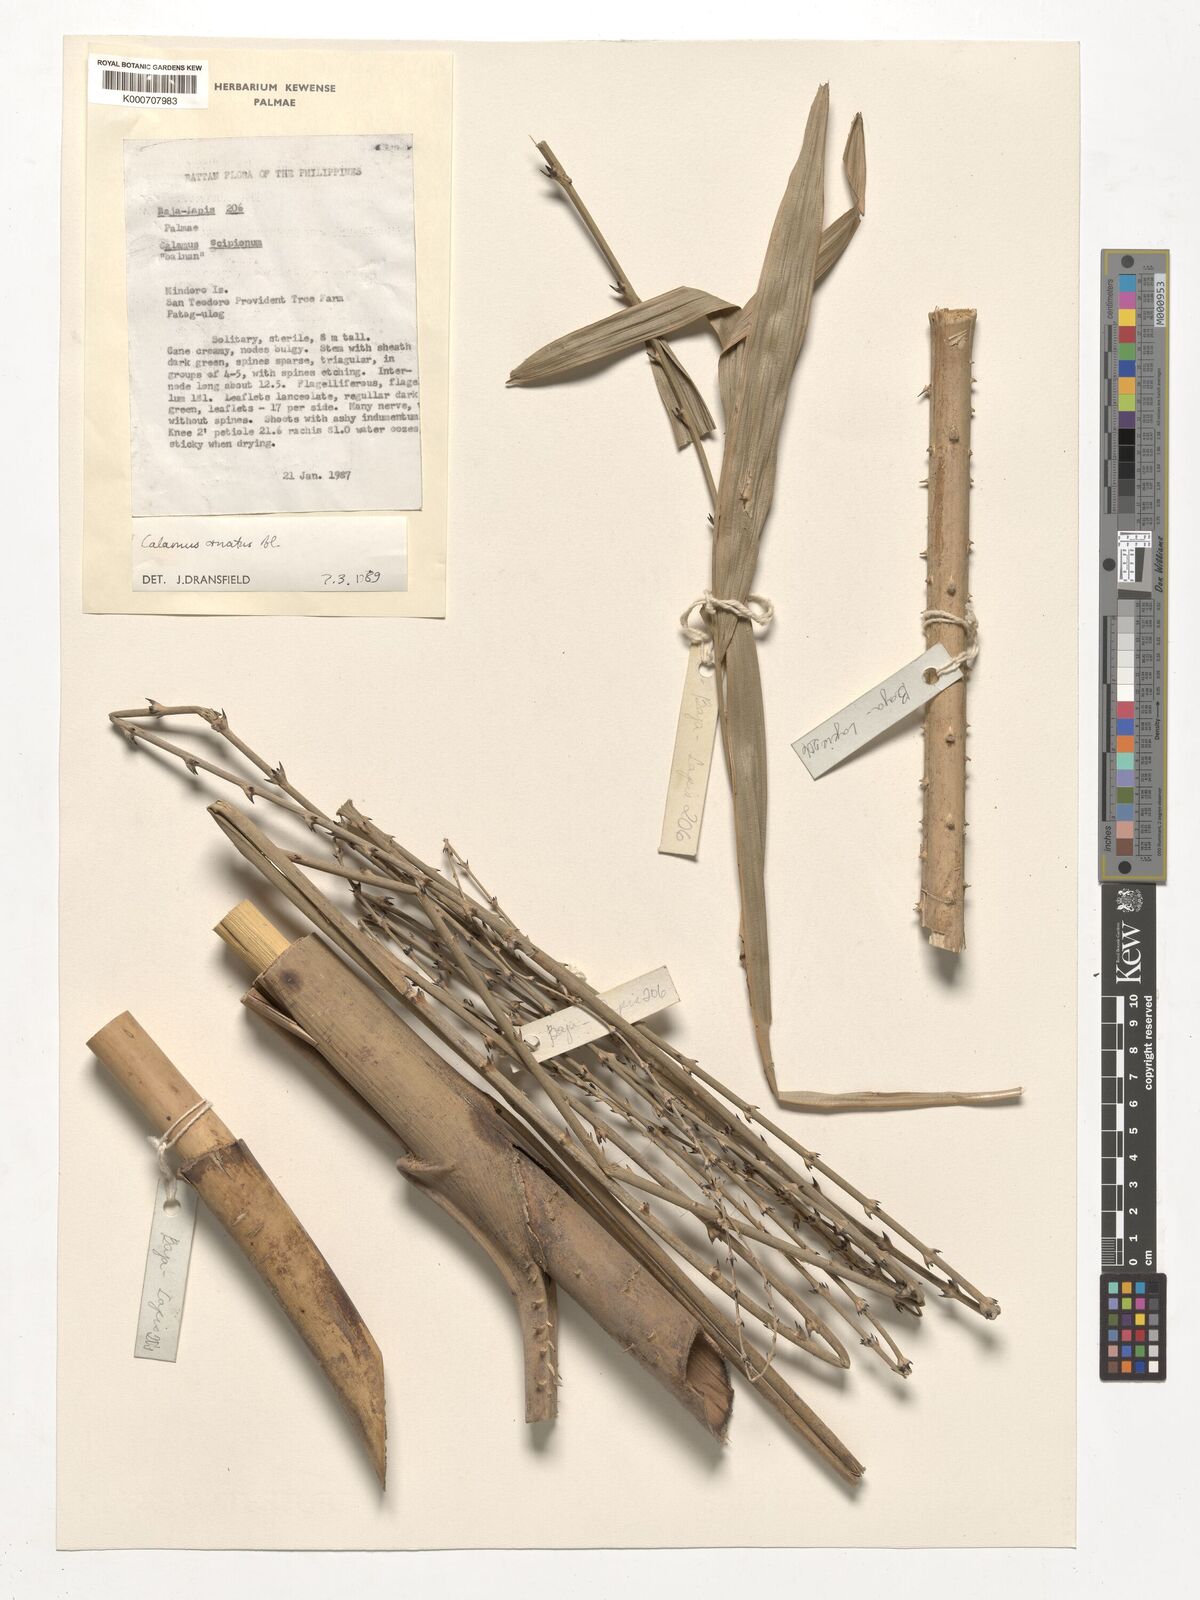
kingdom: Plantae
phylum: Tracheophyta
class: Liliopsida
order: Arecales
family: Arecaceae
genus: Calamus
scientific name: Calamus ornatus
